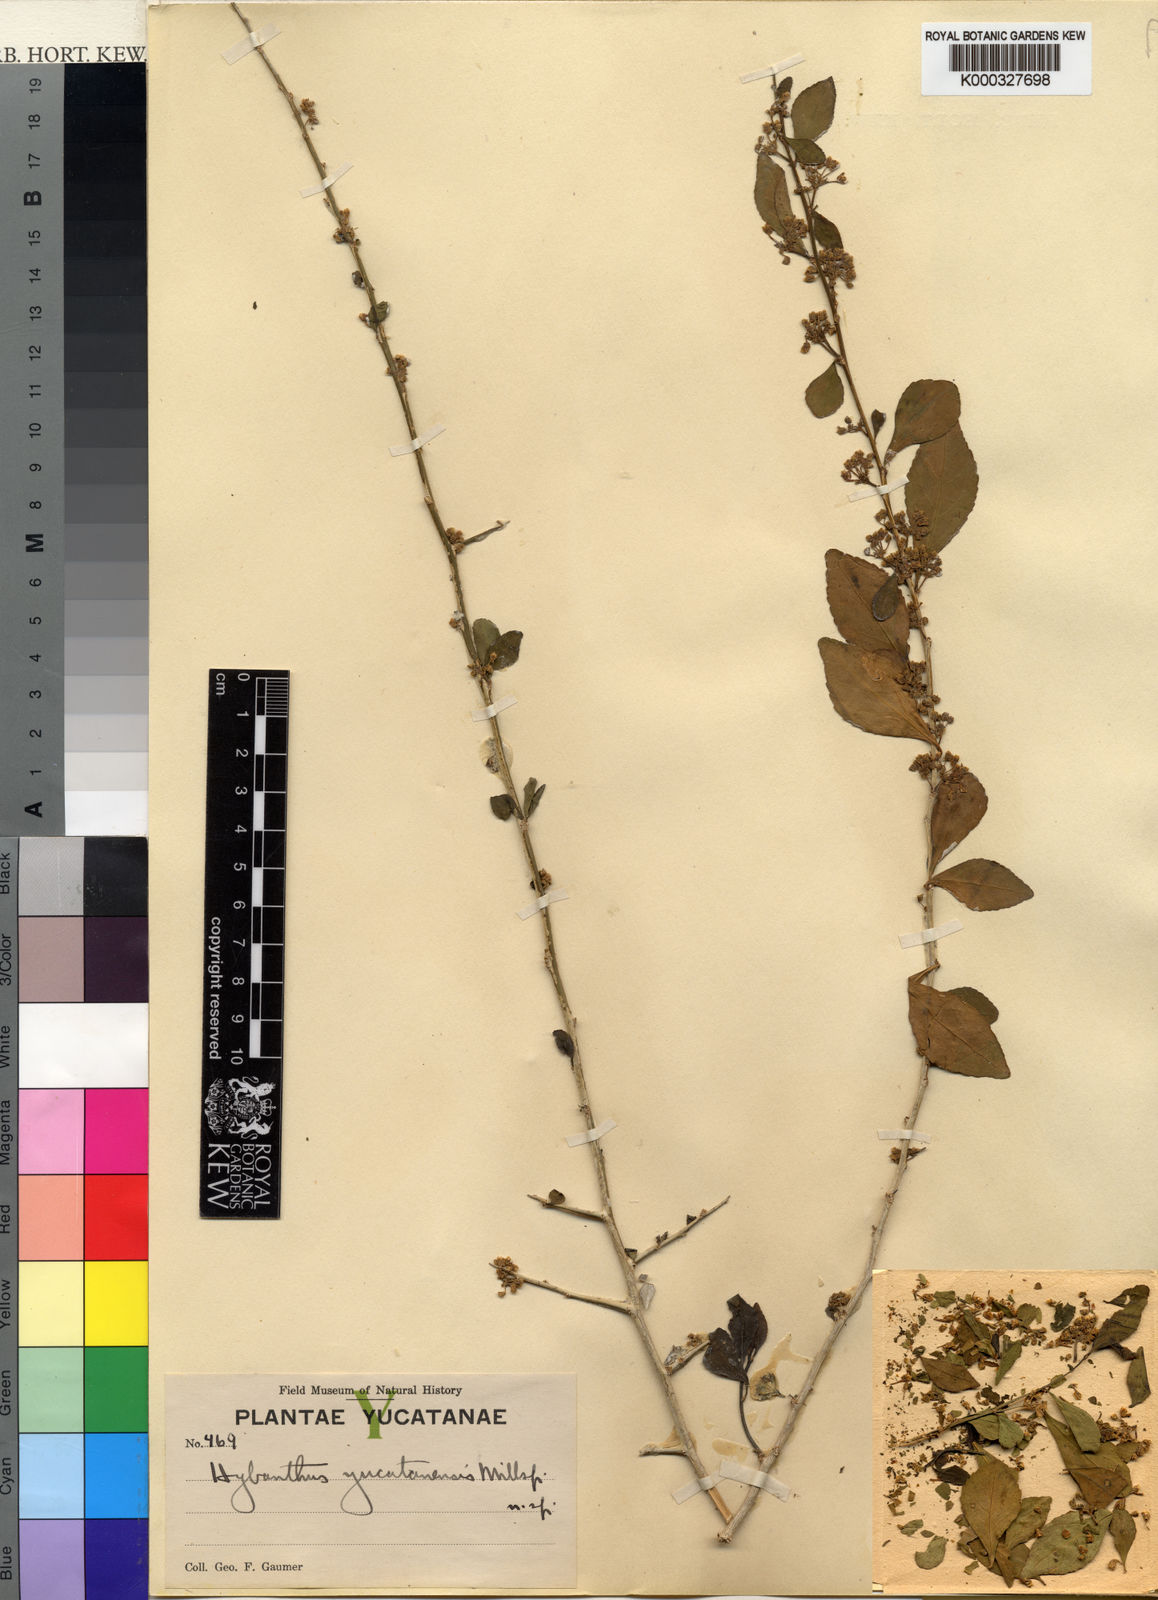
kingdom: Plantae
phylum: Tracheophyta
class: Magnoliopsida
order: Malpighiales
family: Violaceae
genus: Hybanthus
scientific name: Hybanthus yucatanensis
